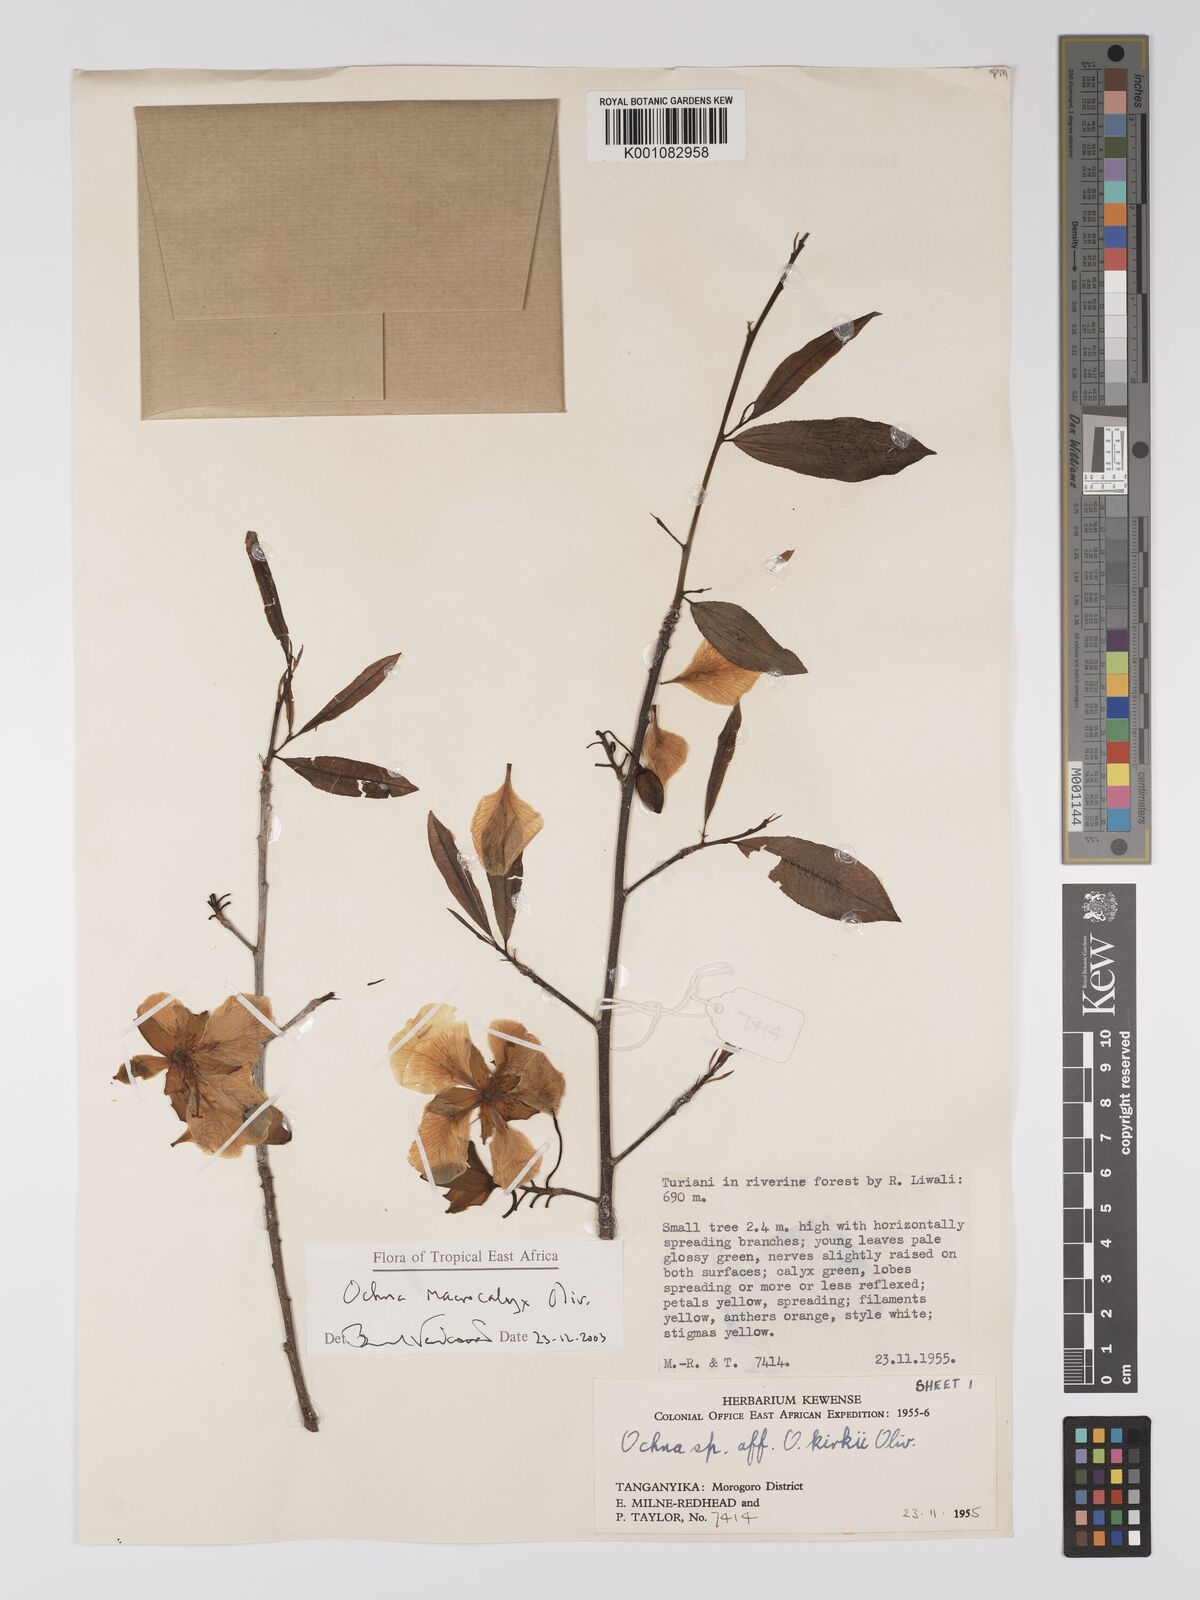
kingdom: Plantae
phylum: Tracheophyta
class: Magnoliopsida
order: Malpighiales
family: Ochnaceae
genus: Ochna
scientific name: Ochna macrocalyx
